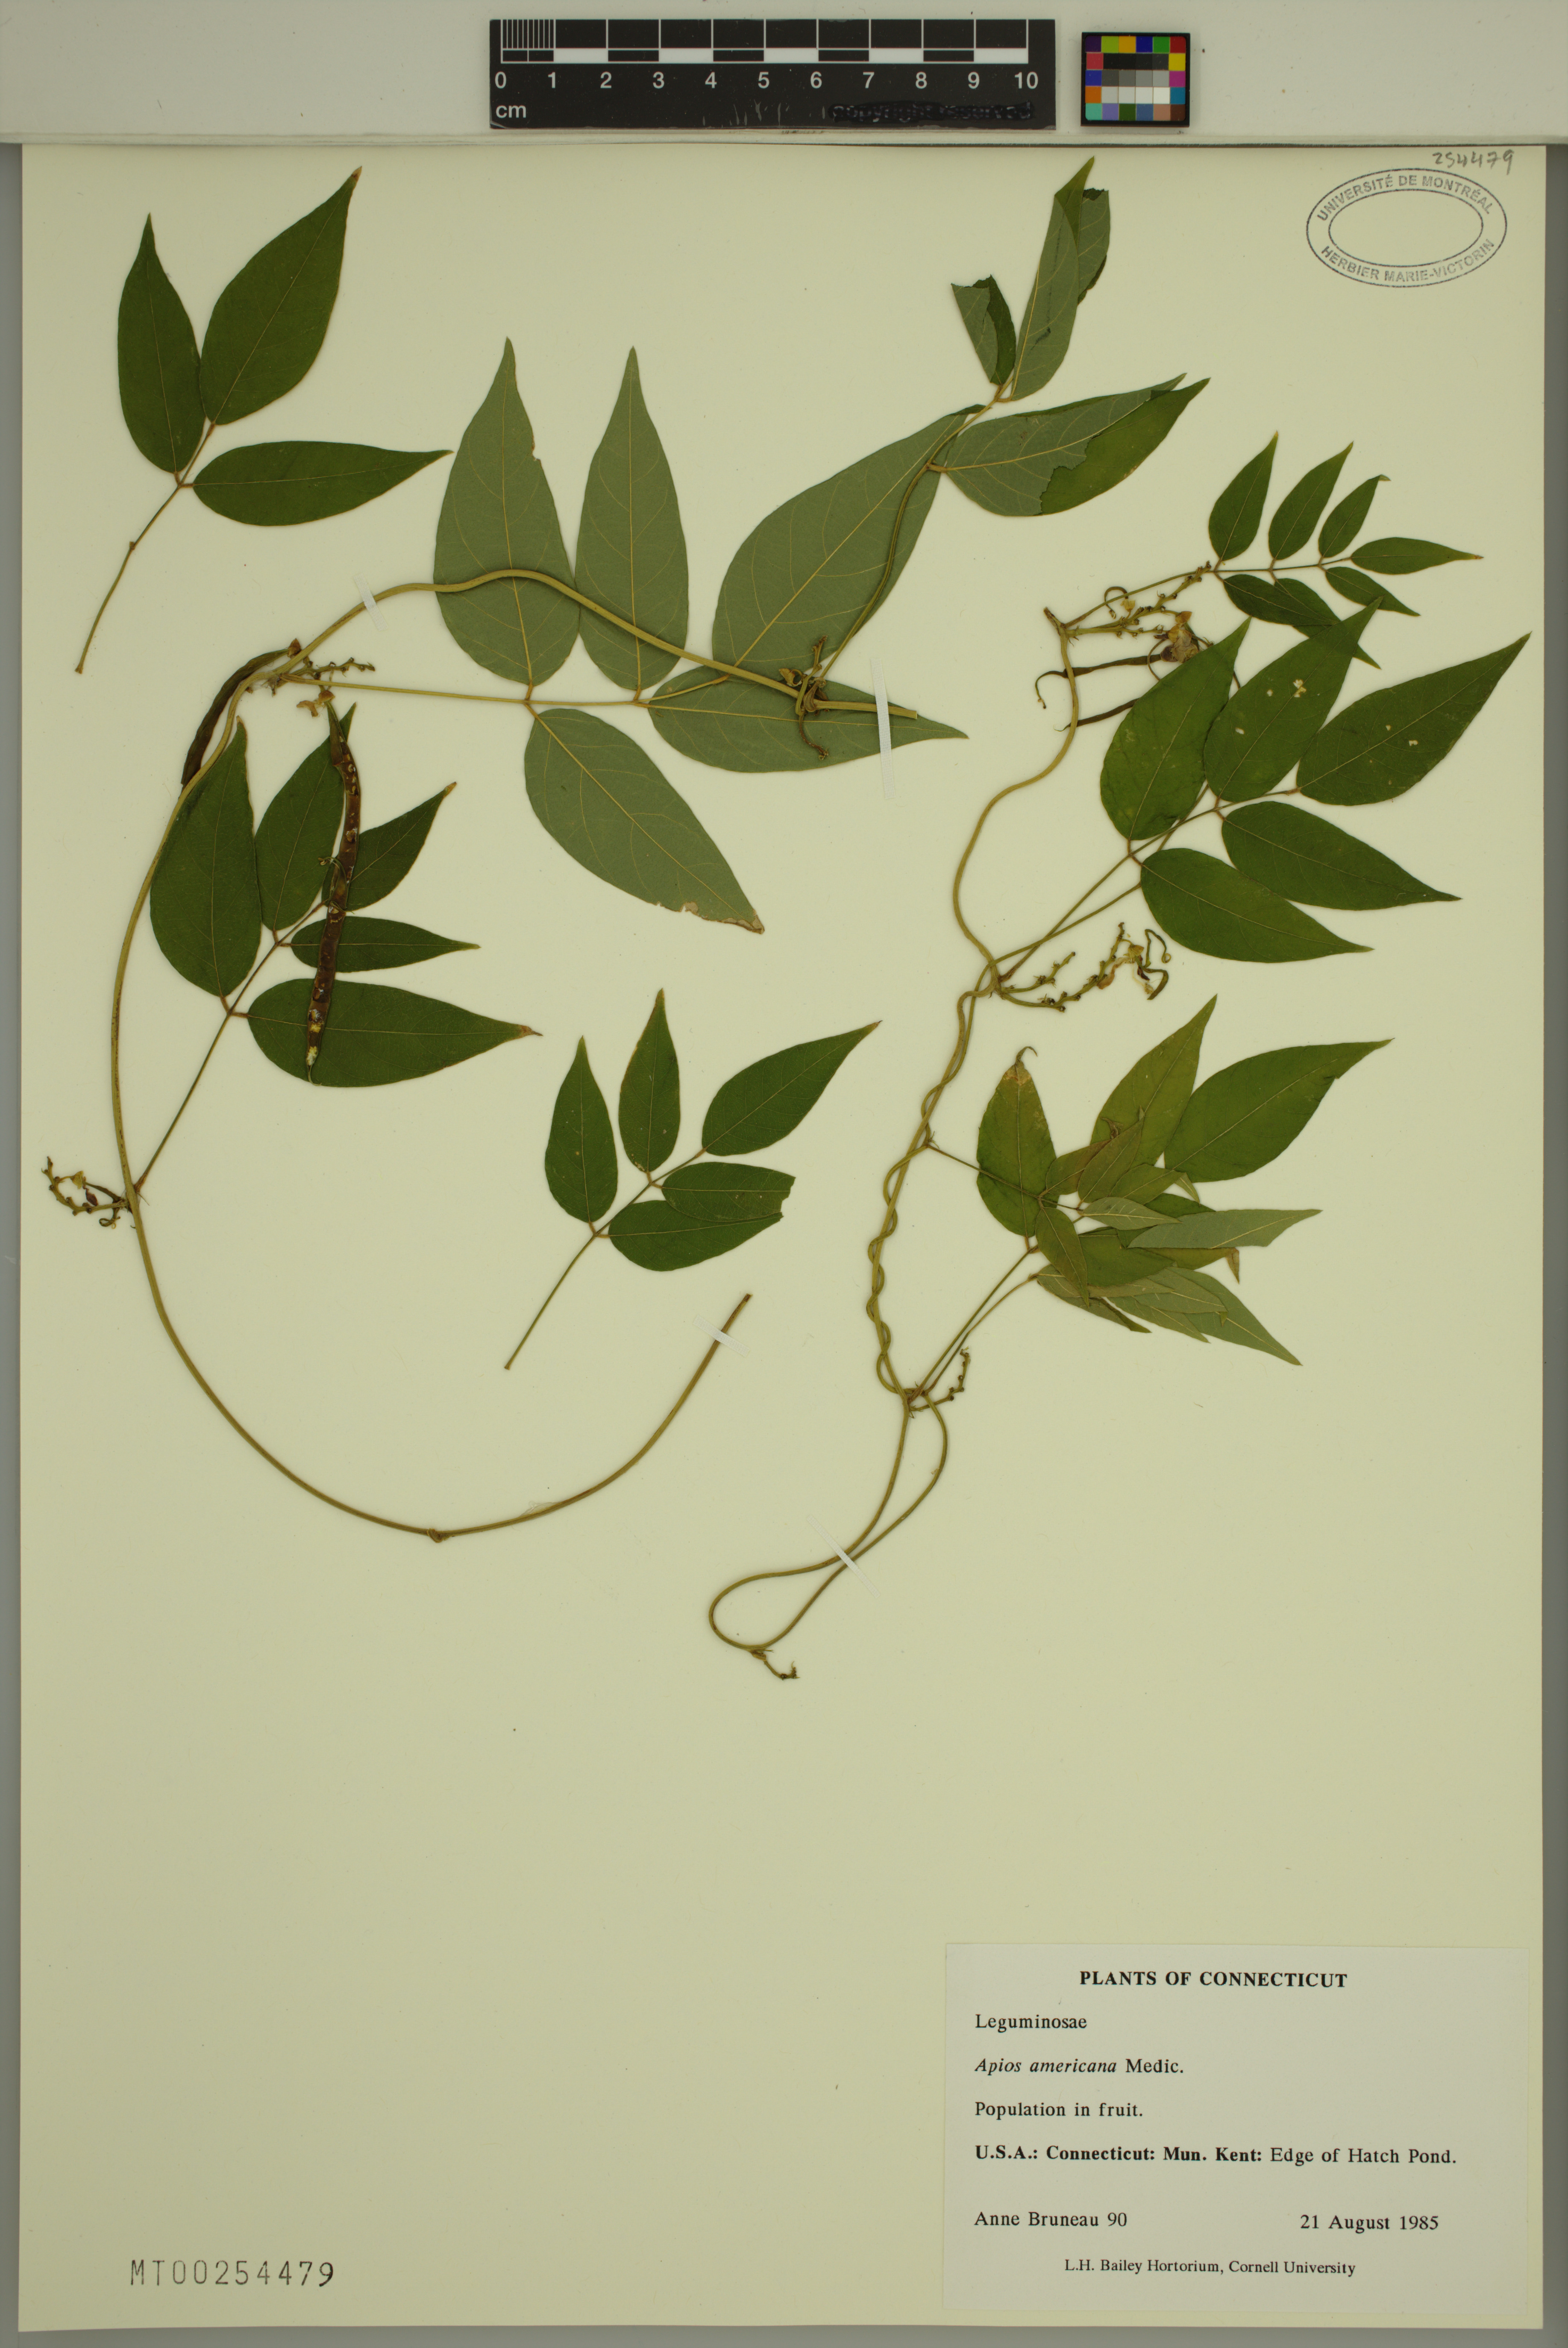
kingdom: Plantae
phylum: Tracheophyta
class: Magnoliopsida
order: Fabales
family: Fabaceae
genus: Apios
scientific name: Apios americana
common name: American potato-bean
